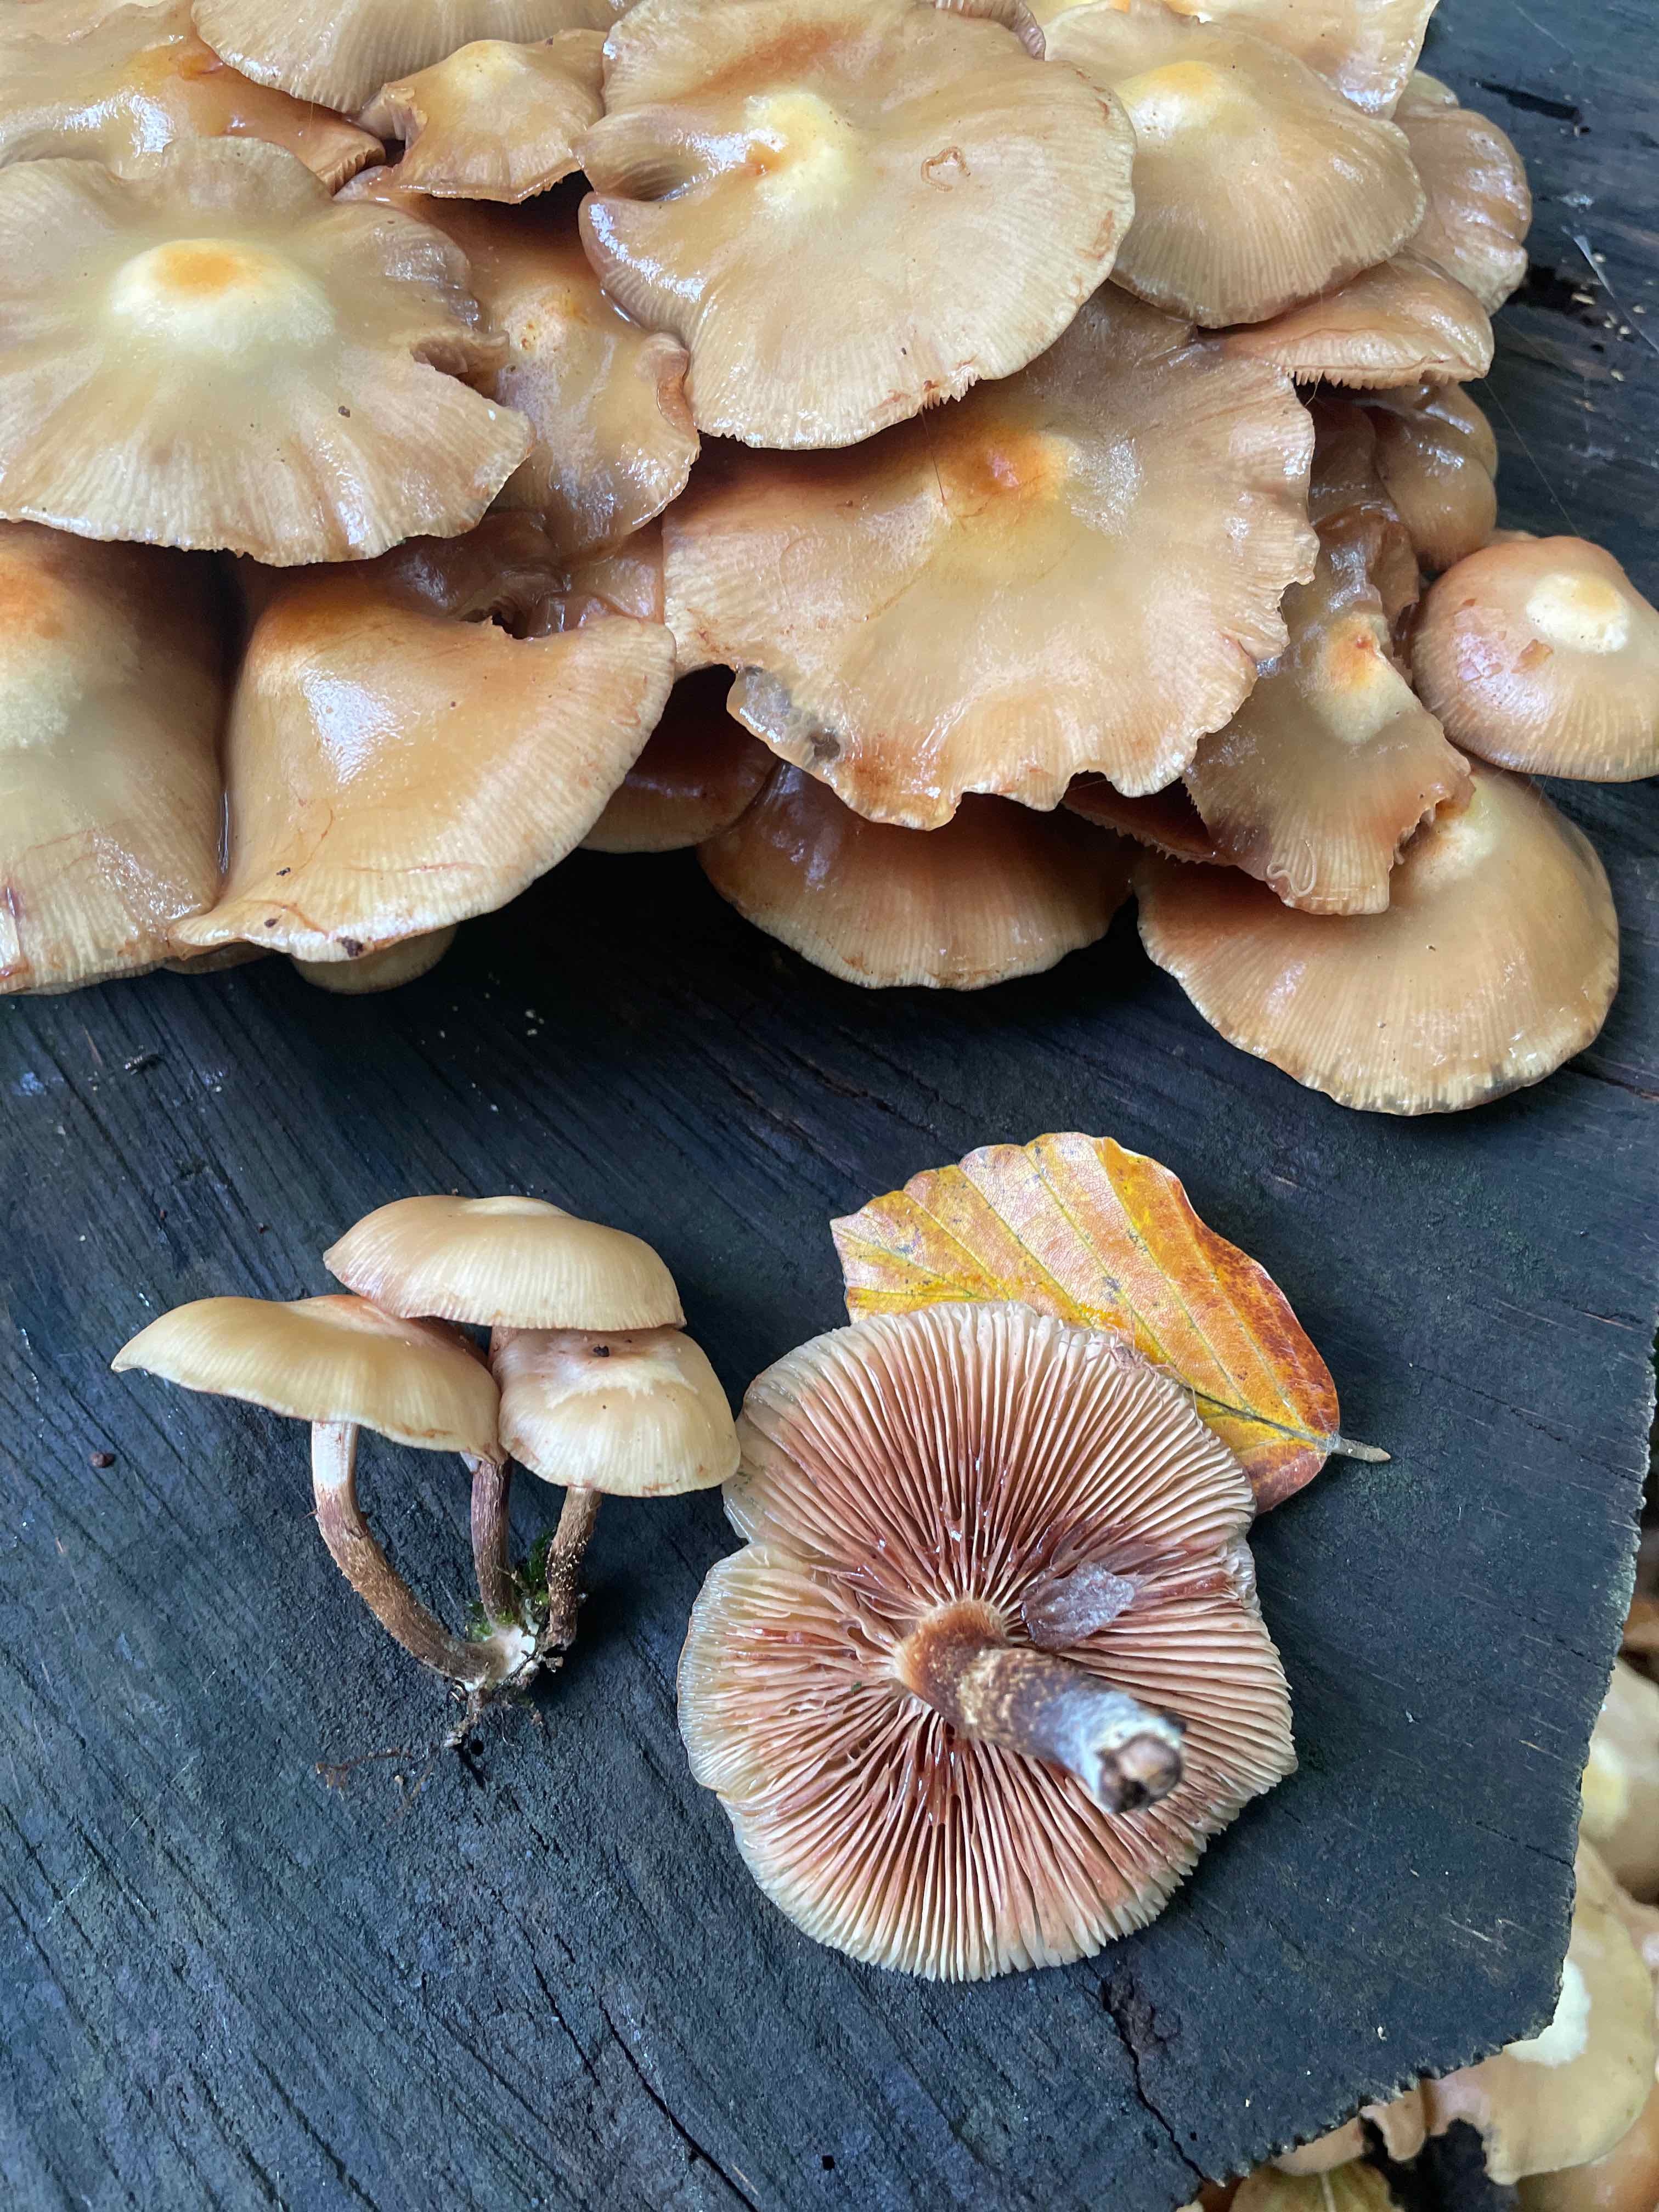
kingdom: Fungi
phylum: Basidiomycota
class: Agaricomycetes
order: Agaricales
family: Strophariaceae
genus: Kuehneromyces
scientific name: Kuehneromyces mutabilis
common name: foranderlig skælhat
